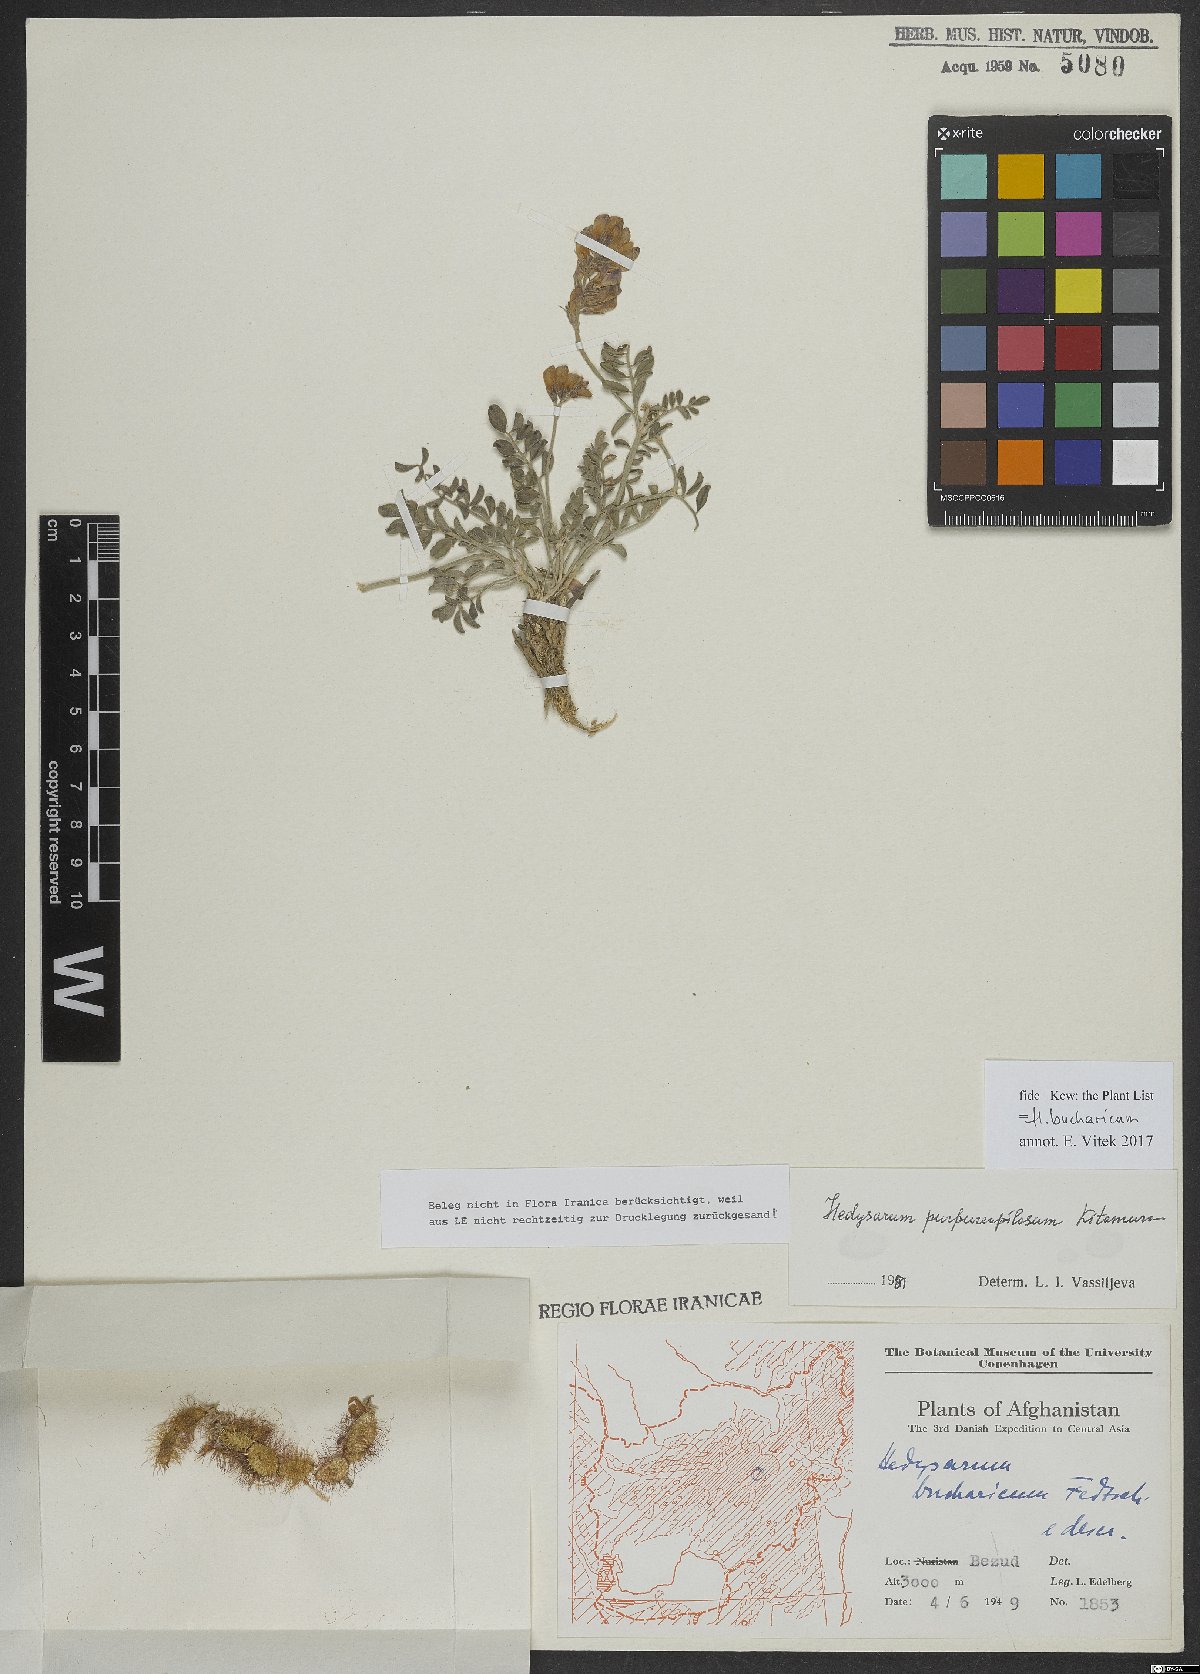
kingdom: Plantae
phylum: Tracheophyta
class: Magnoliopsida
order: Fabales
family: Fabaceae
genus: Hedysarum
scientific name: Hedysarum bucharicum
